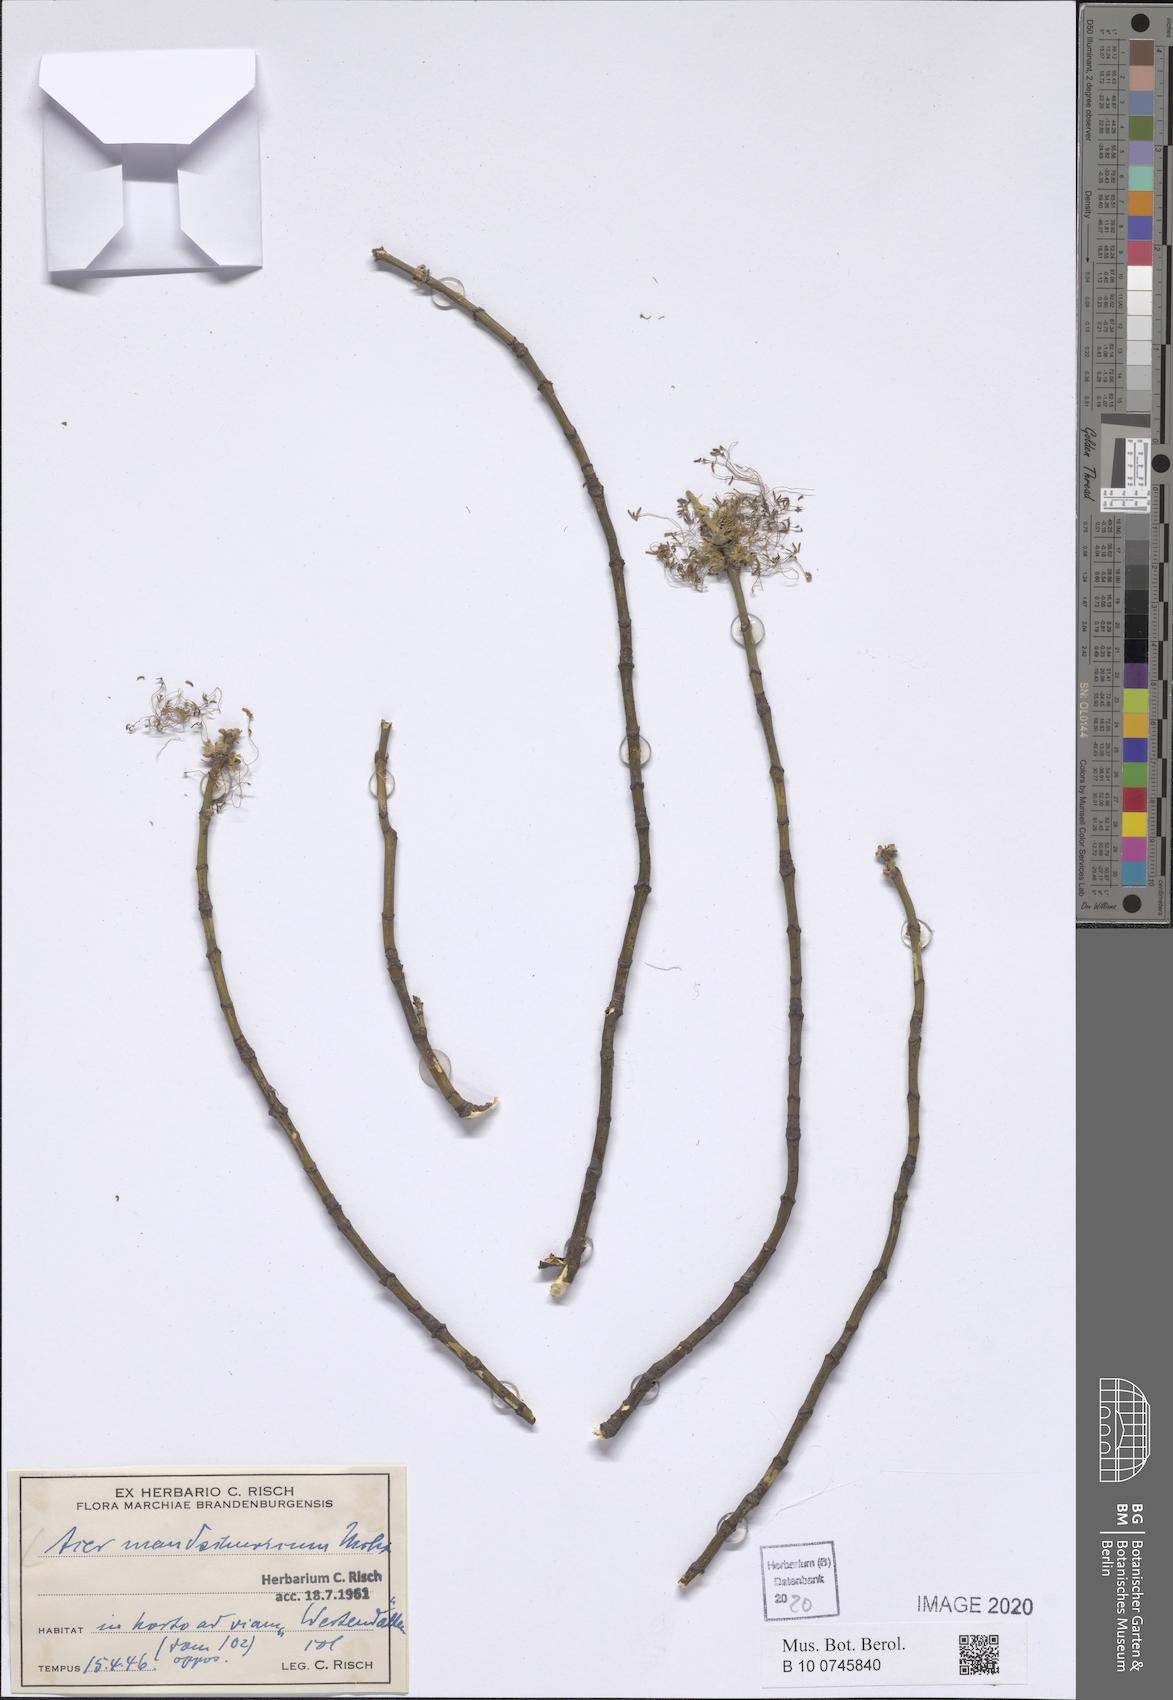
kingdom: Plantae
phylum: Tracheophyta
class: Magnoliopsida
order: Sapindales
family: Sapindaceae
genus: Acer
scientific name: Acer mandshuricum
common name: Manchurian maple
